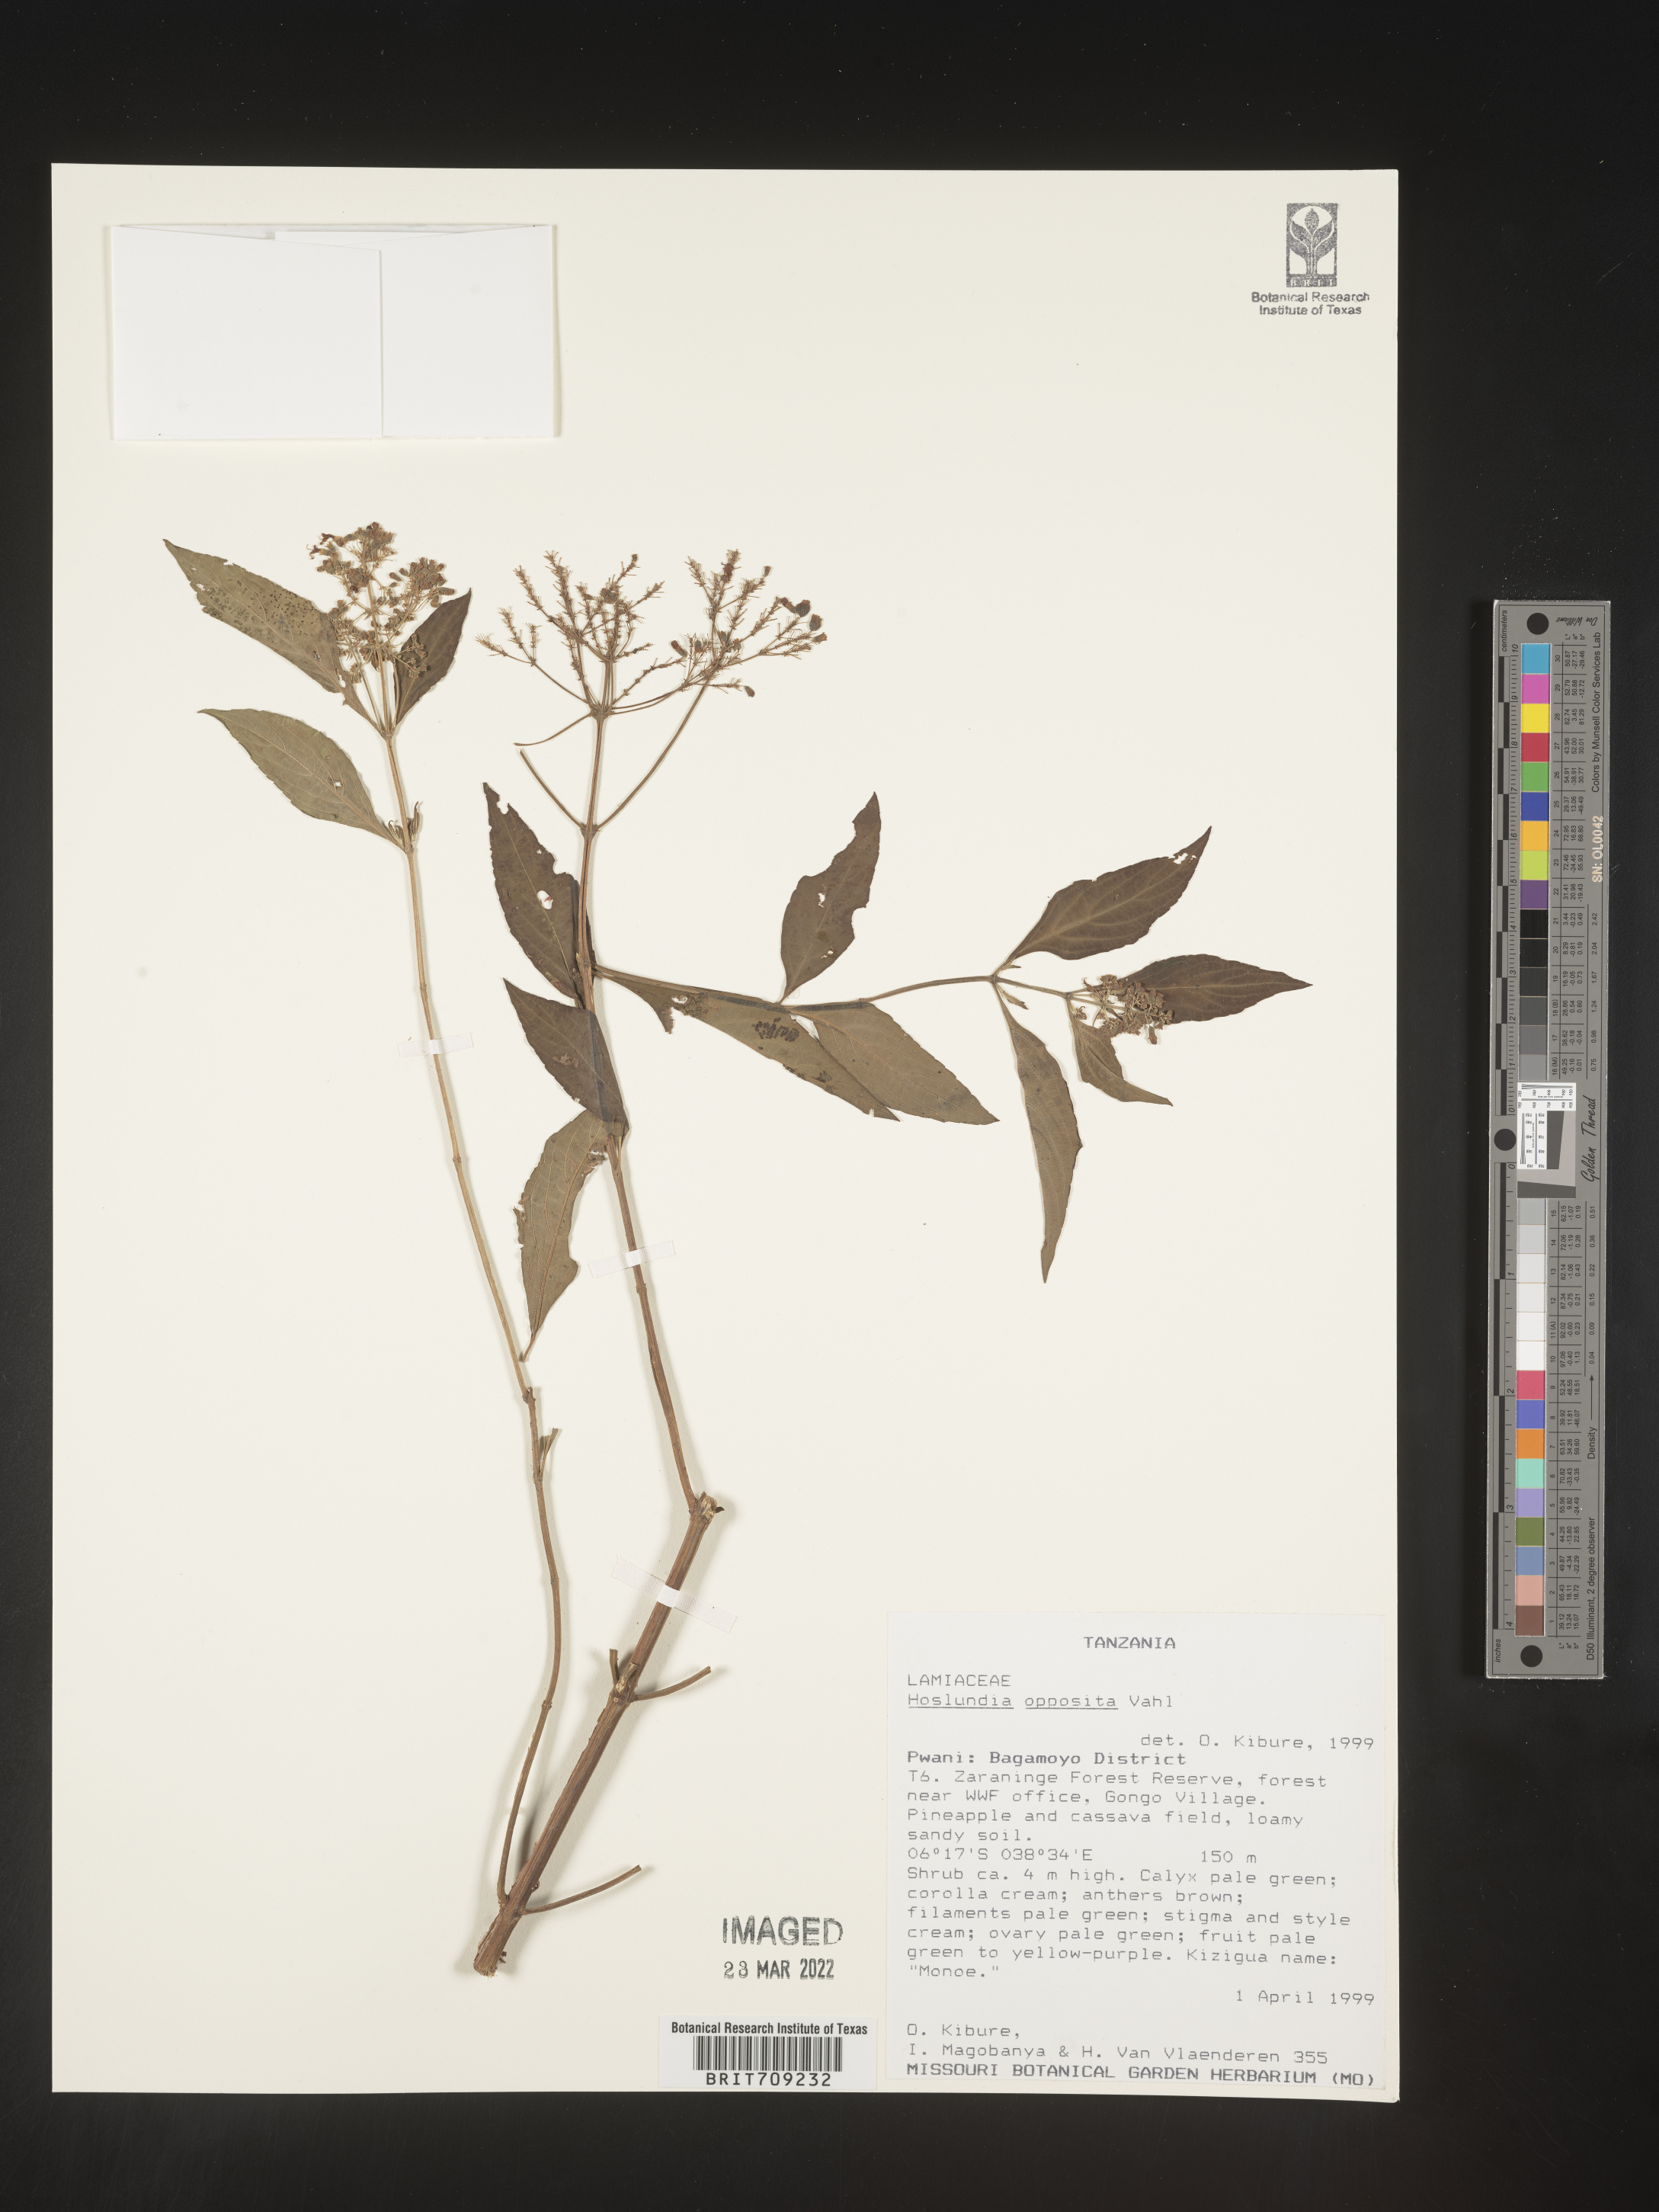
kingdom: Plantae
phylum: Tracheophyta
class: Magnoliopsida
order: Lamiales
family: Lamiaceae
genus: Hoslundia
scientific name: Hoslundia opposita
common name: Kamyuye
